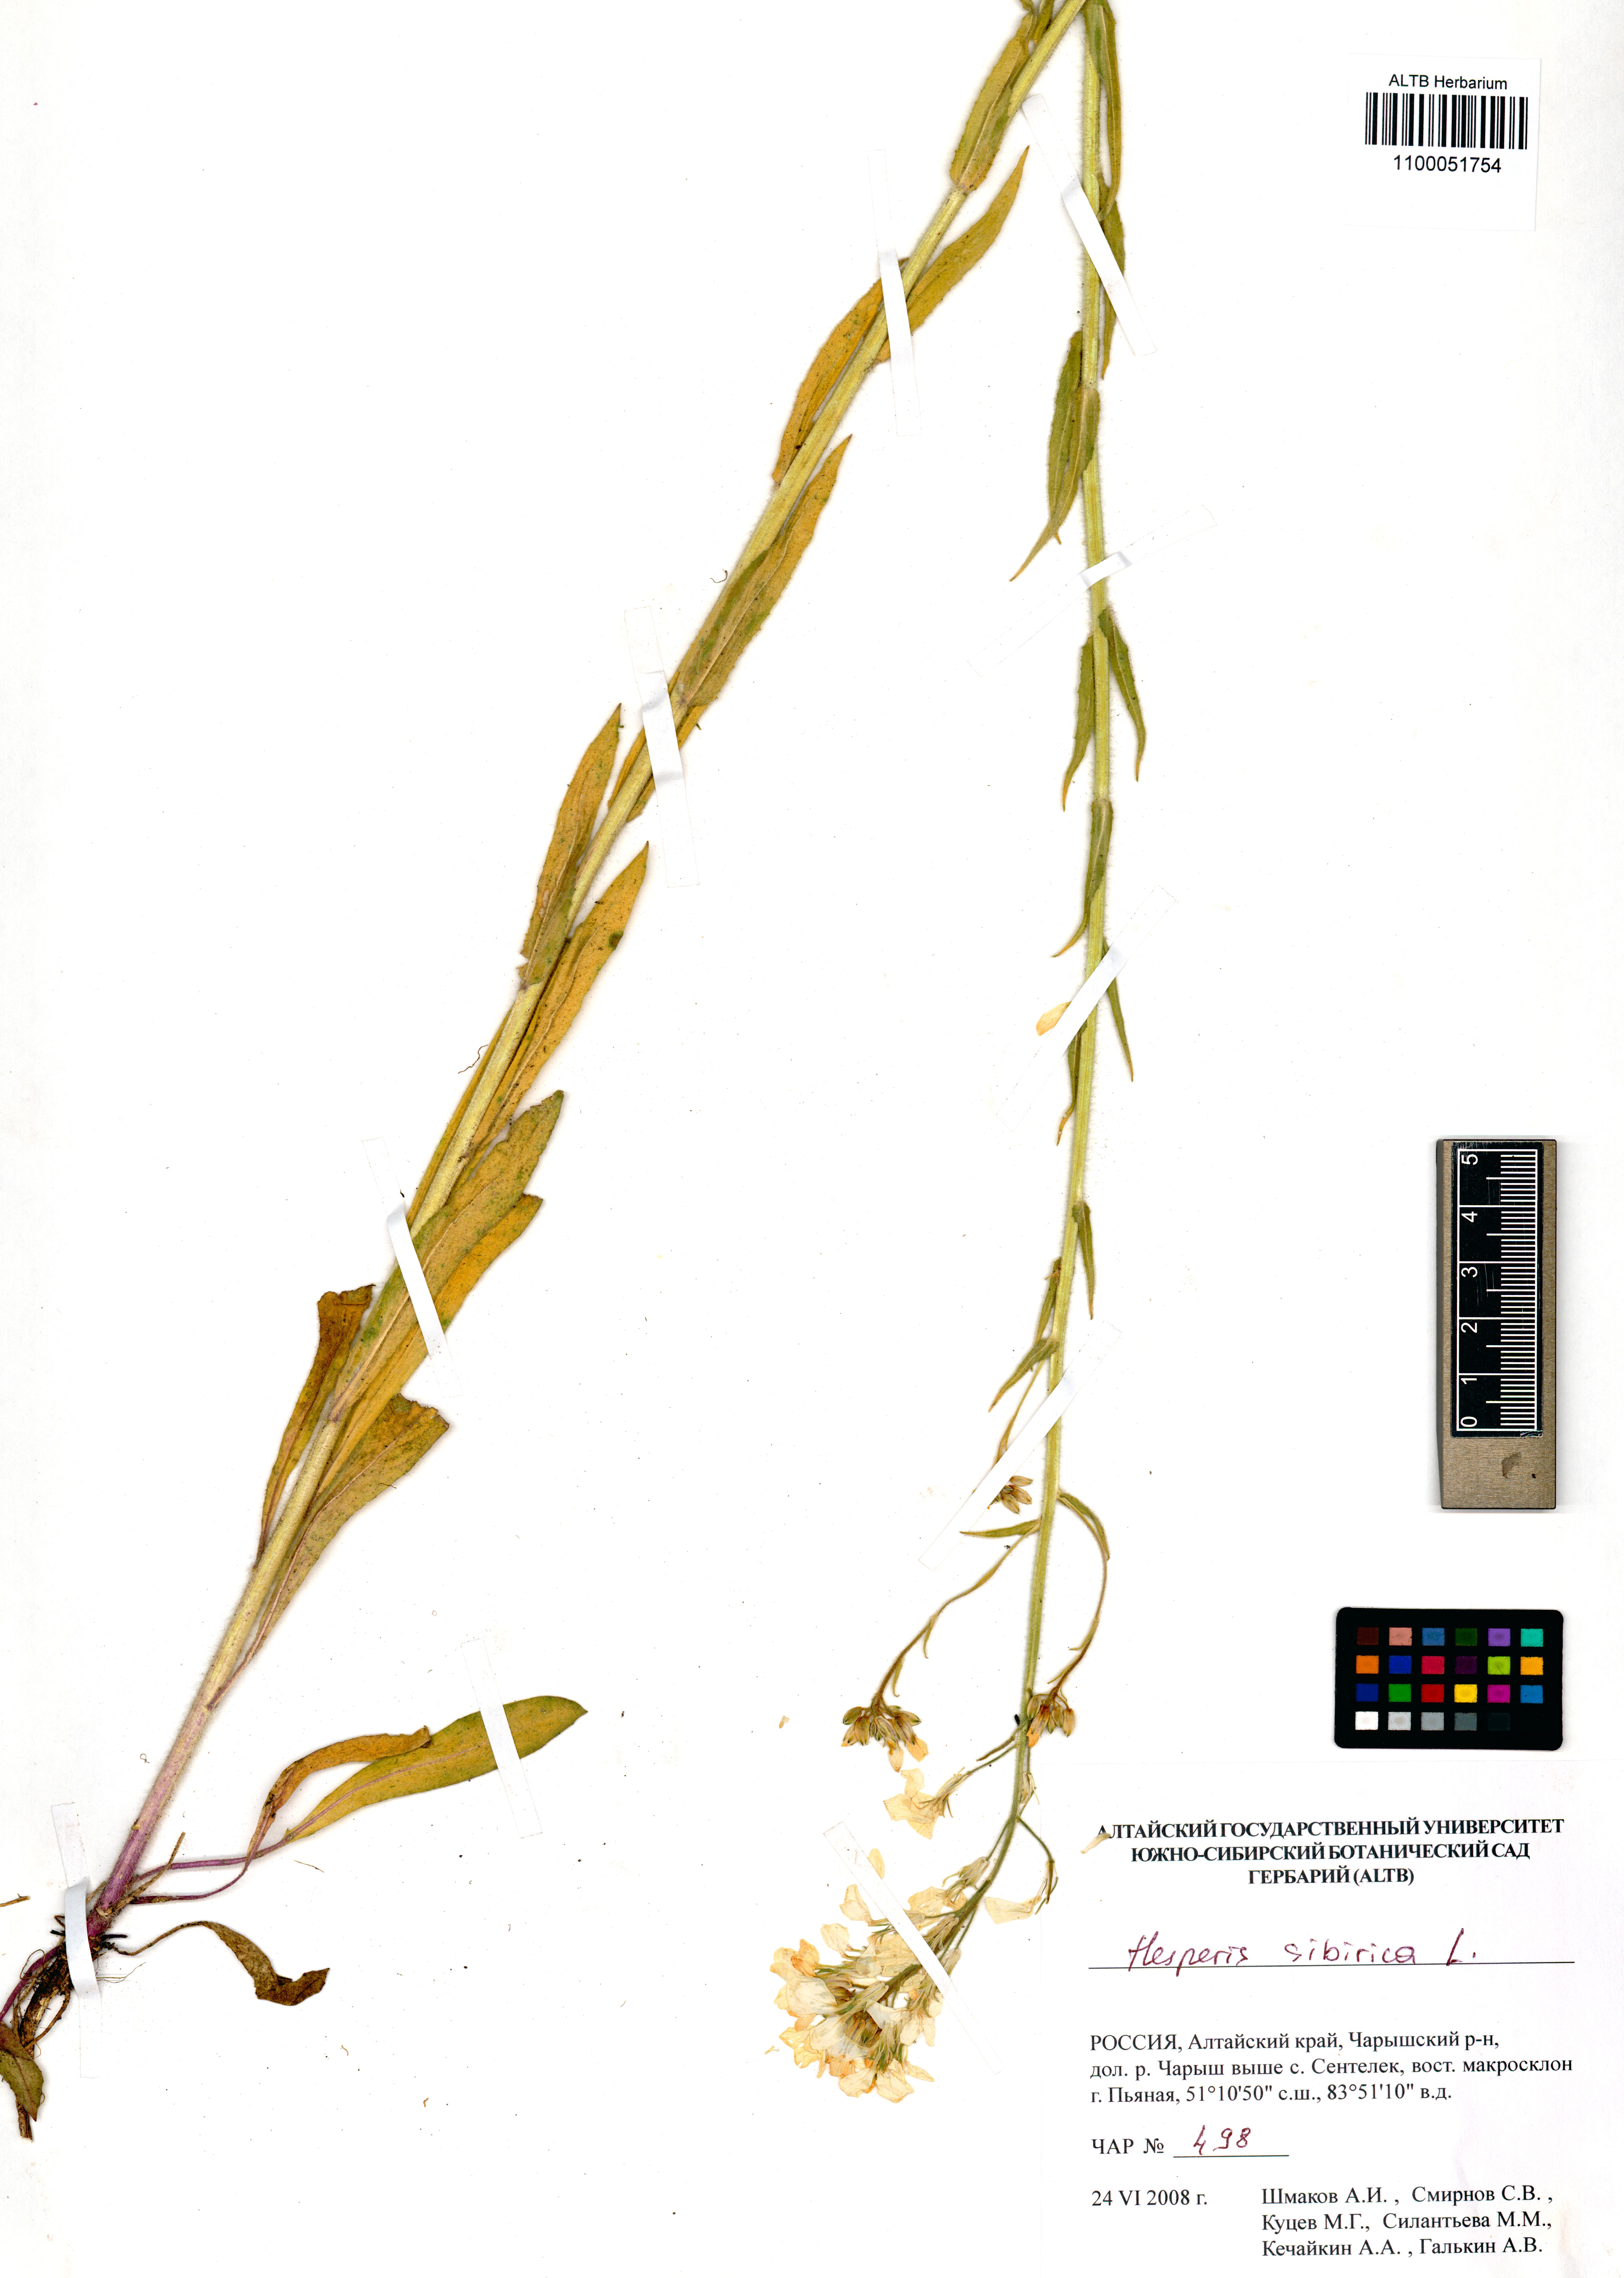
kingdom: Plantae
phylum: Tracheophyta
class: Magnoliopsida
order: Brassicales
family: Brassicaceae
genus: Hesperis
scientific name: Hesperis sibirica
